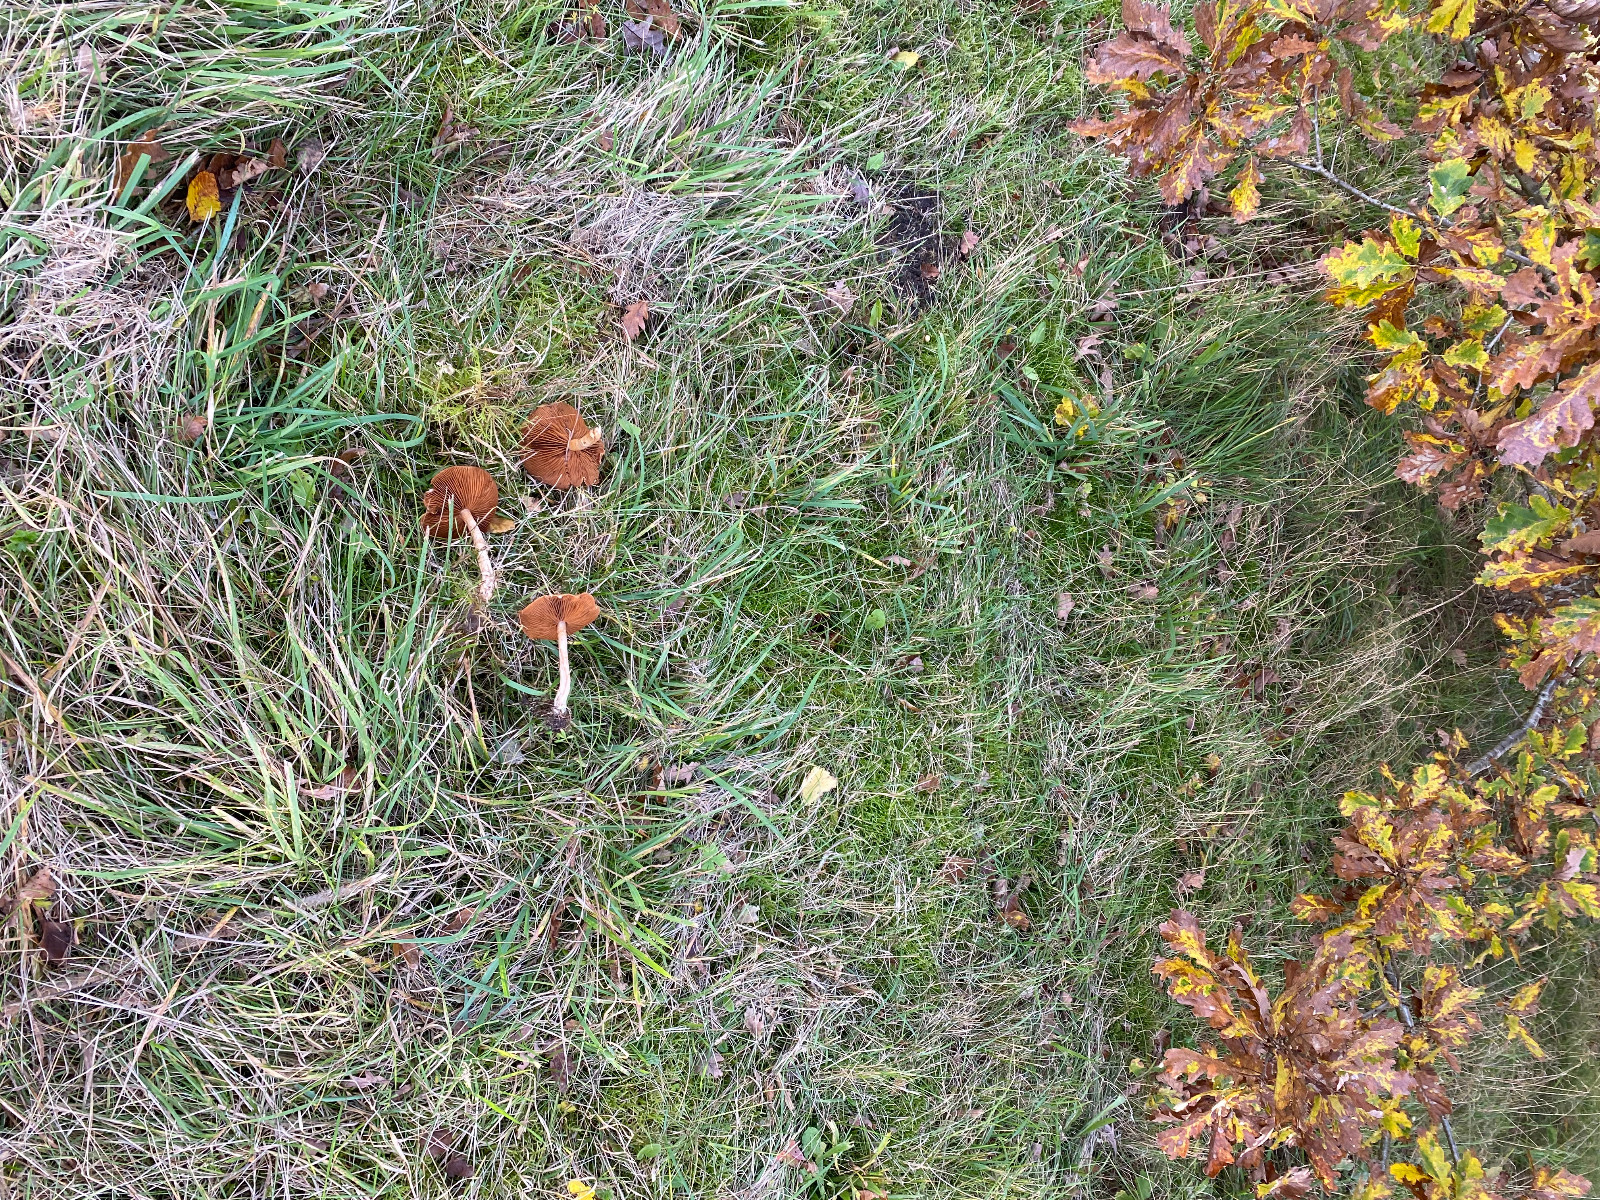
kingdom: Fungi
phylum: Basidiomycota
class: Agaricomycetes
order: Agaricales
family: Cortinariaceae
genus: Cortinarius
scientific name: Cortinarius
